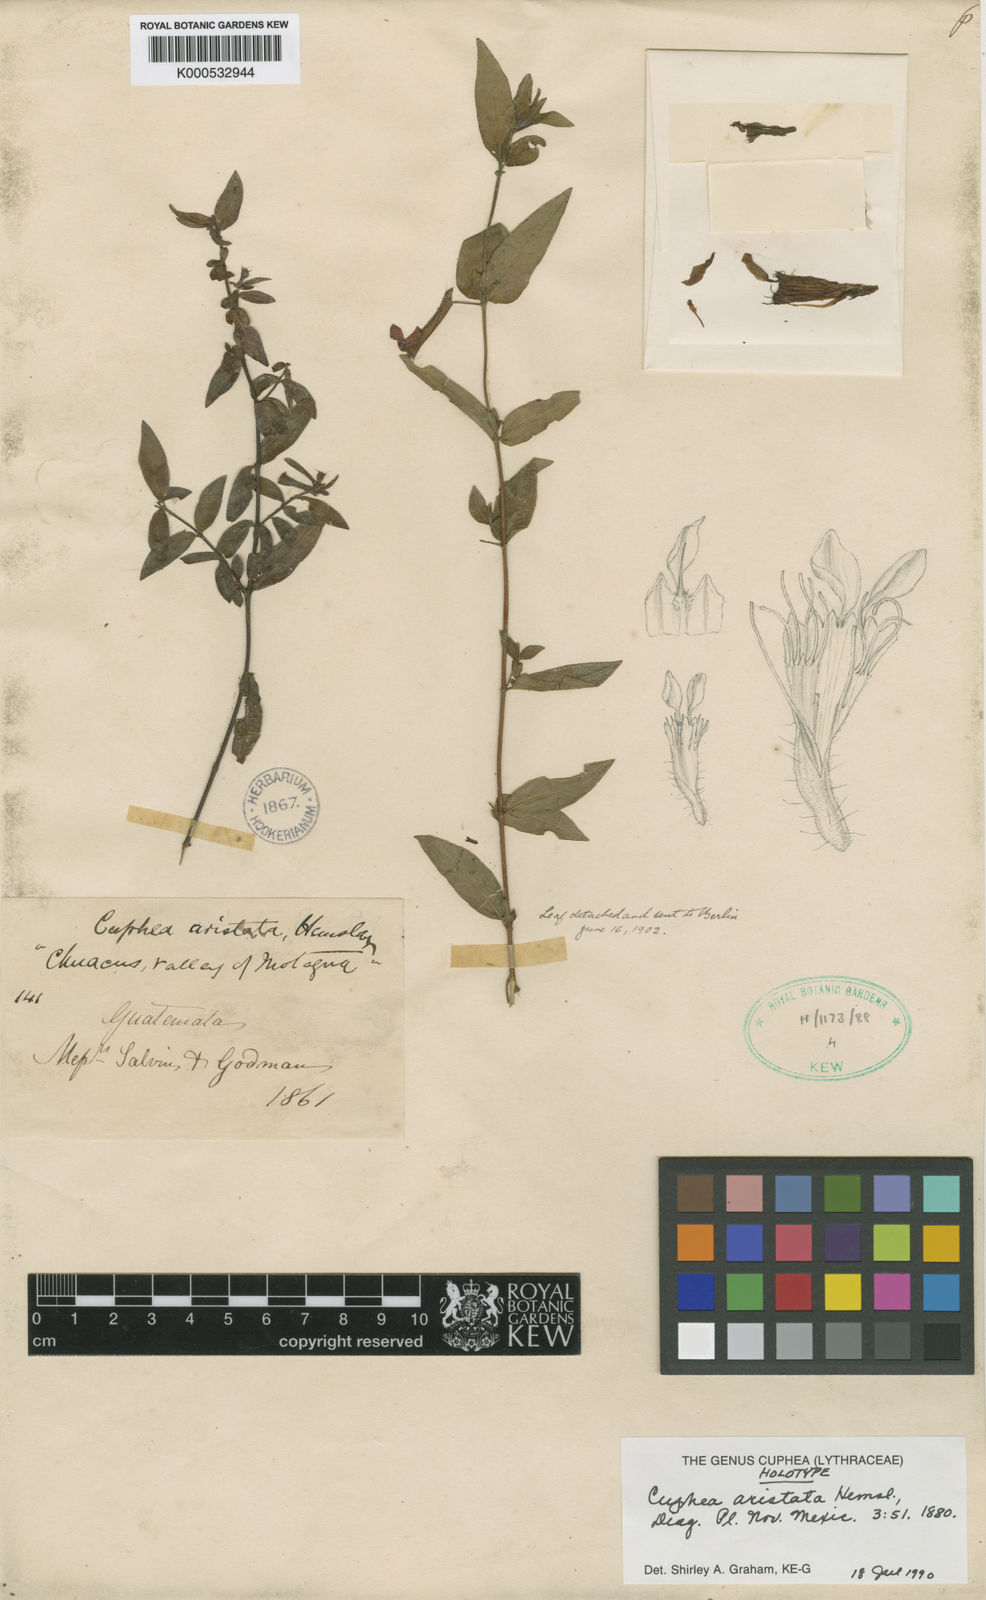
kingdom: Plantae
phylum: Tracheophyta
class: Magnoliopsida
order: Myrtales
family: Lythraceae
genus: Cuphea
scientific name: Cuphea aristata
